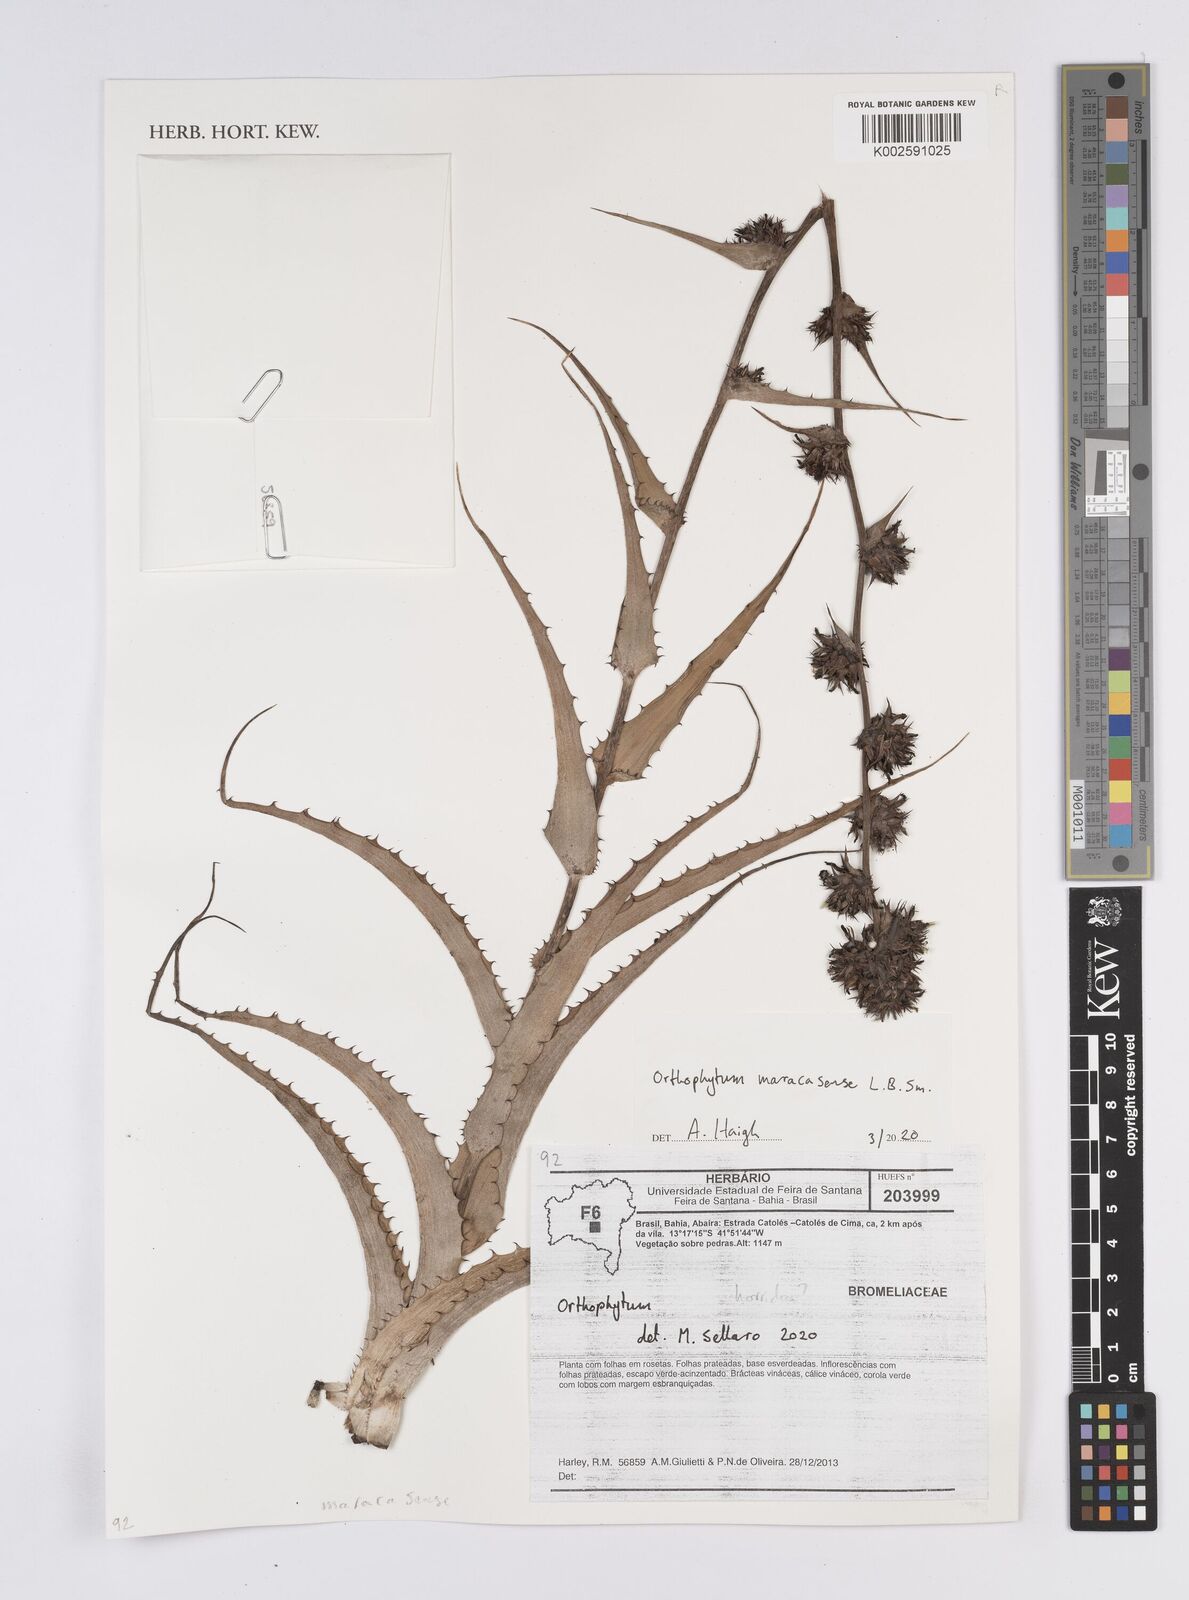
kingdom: Plantae
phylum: Tracheophyta
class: Liliopsida
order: Poales
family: Bromeliaceae
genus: Orthophytum
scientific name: Orthophytum maracasense
